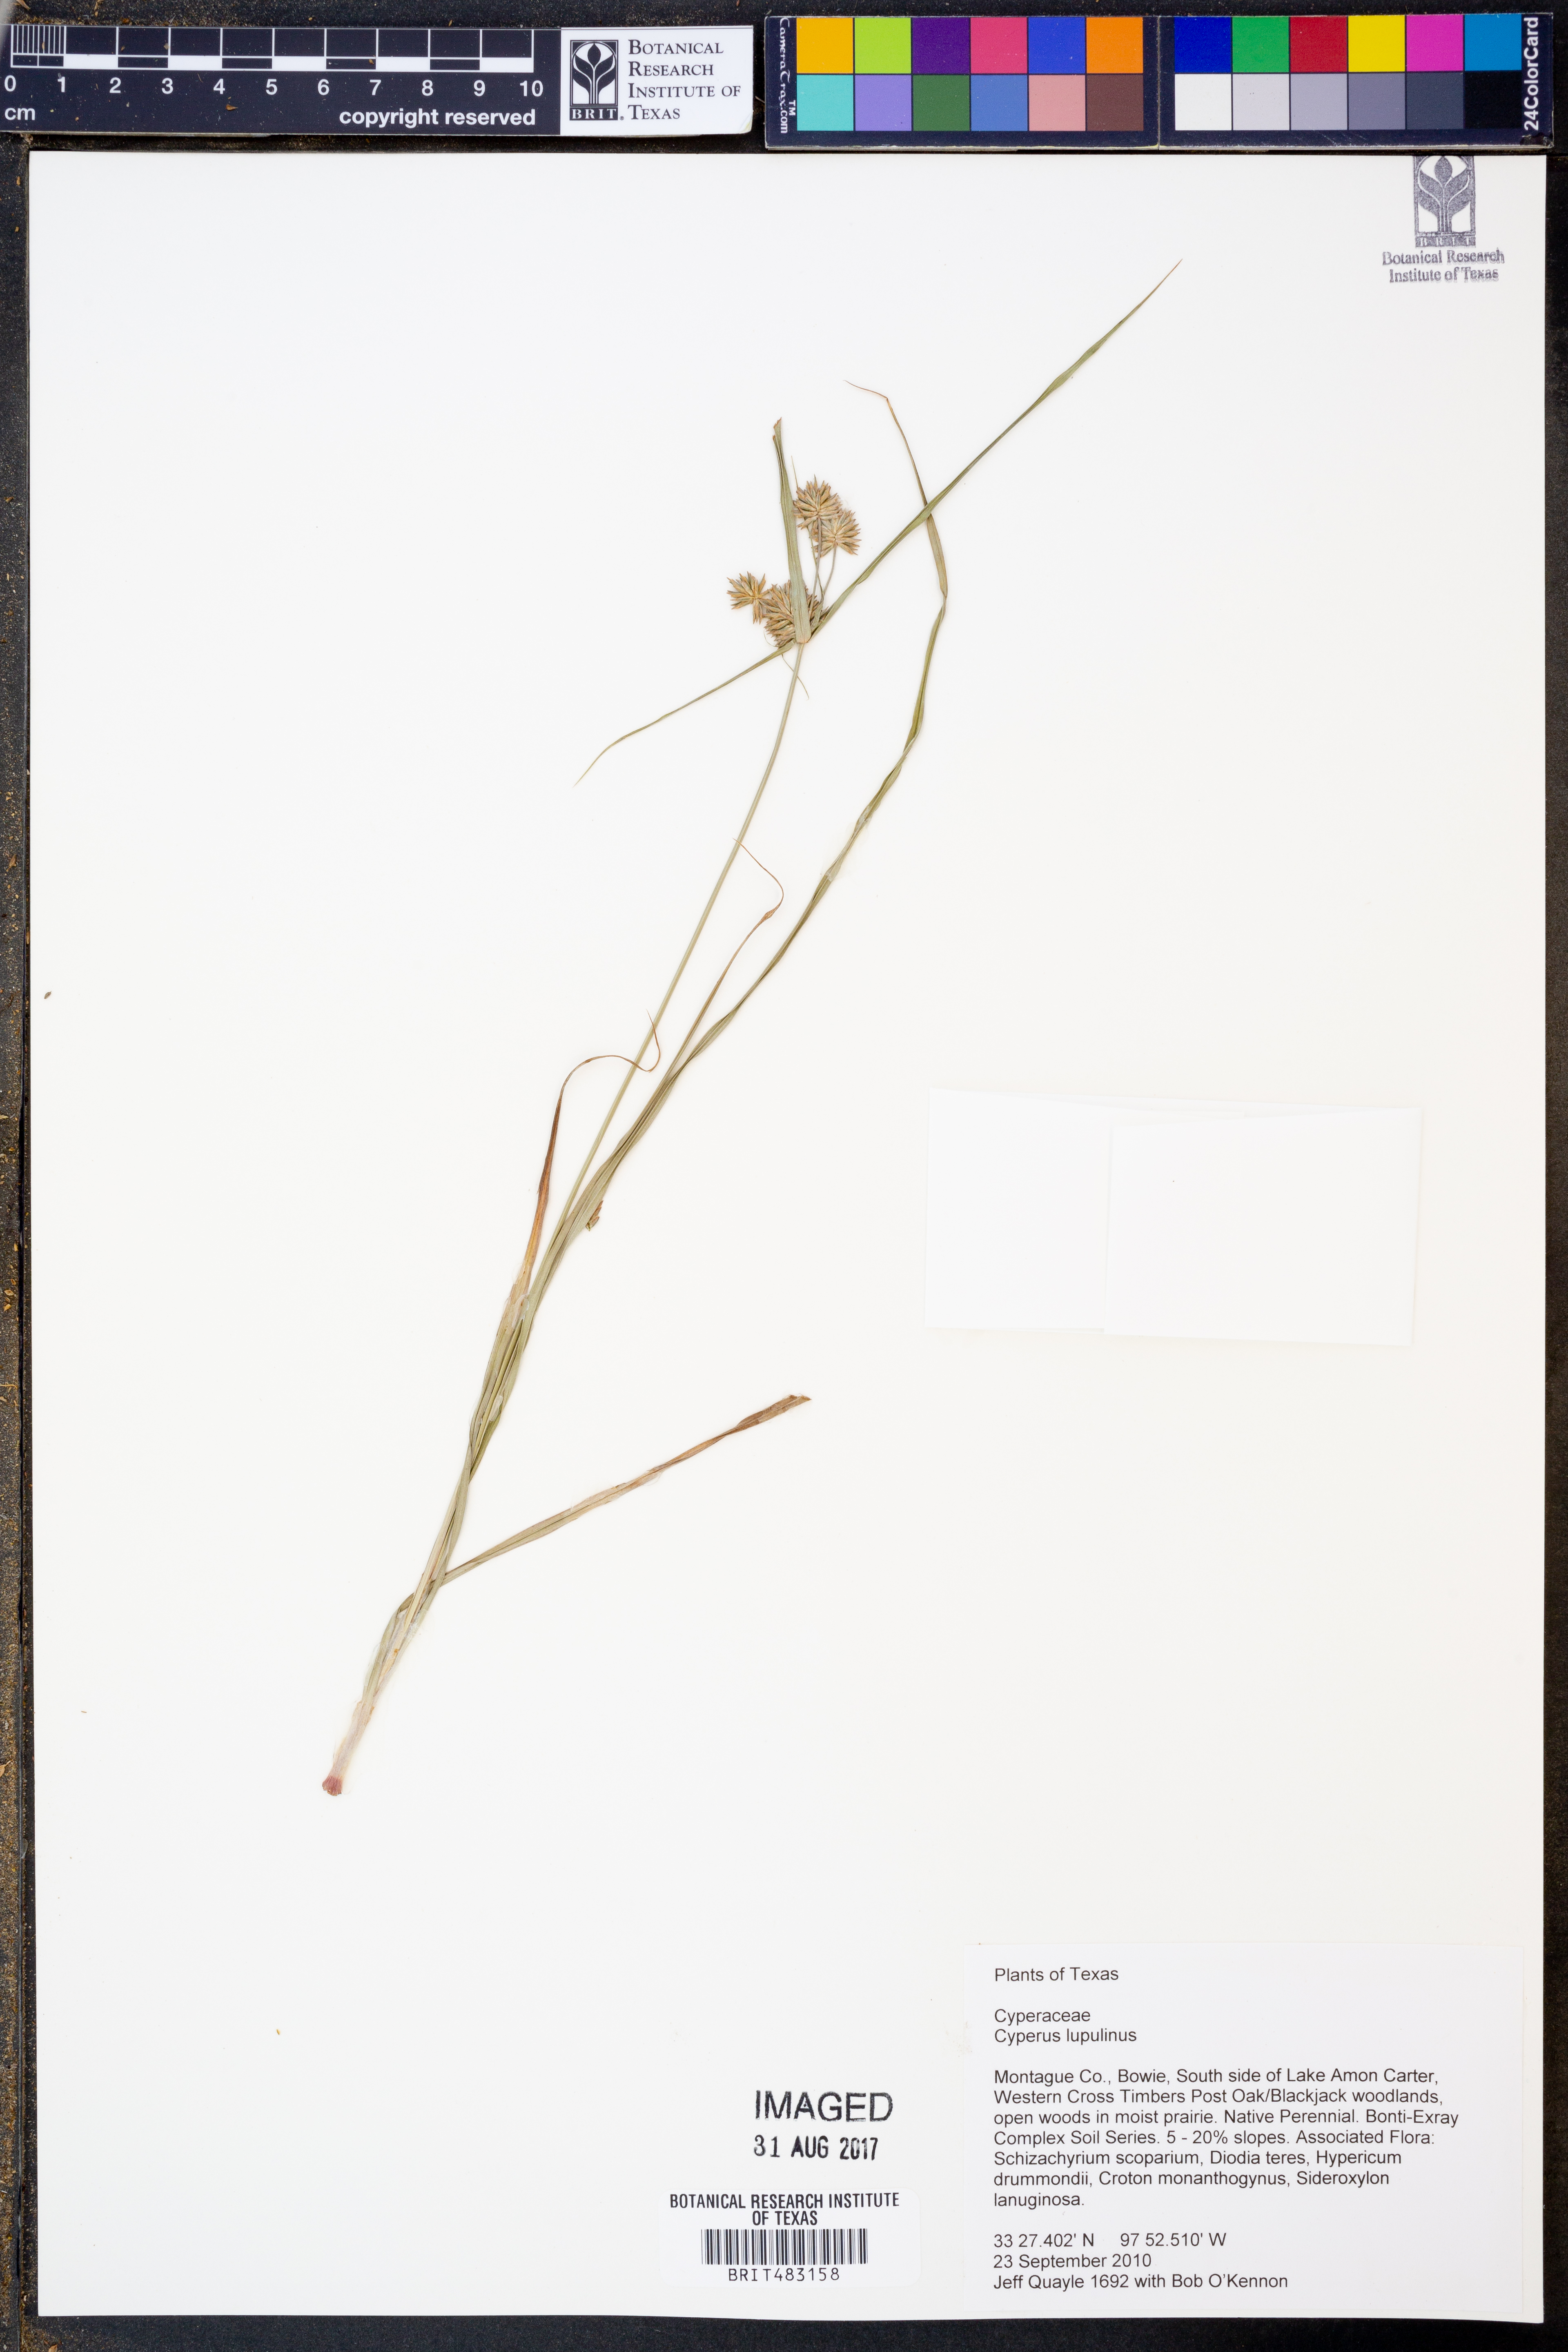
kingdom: Plantae
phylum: Tracheophyta
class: Liliopsida
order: Poales
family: Cyperaceae
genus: Cyperus
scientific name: Cyperus lupulinus
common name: Great plains flatsedge
